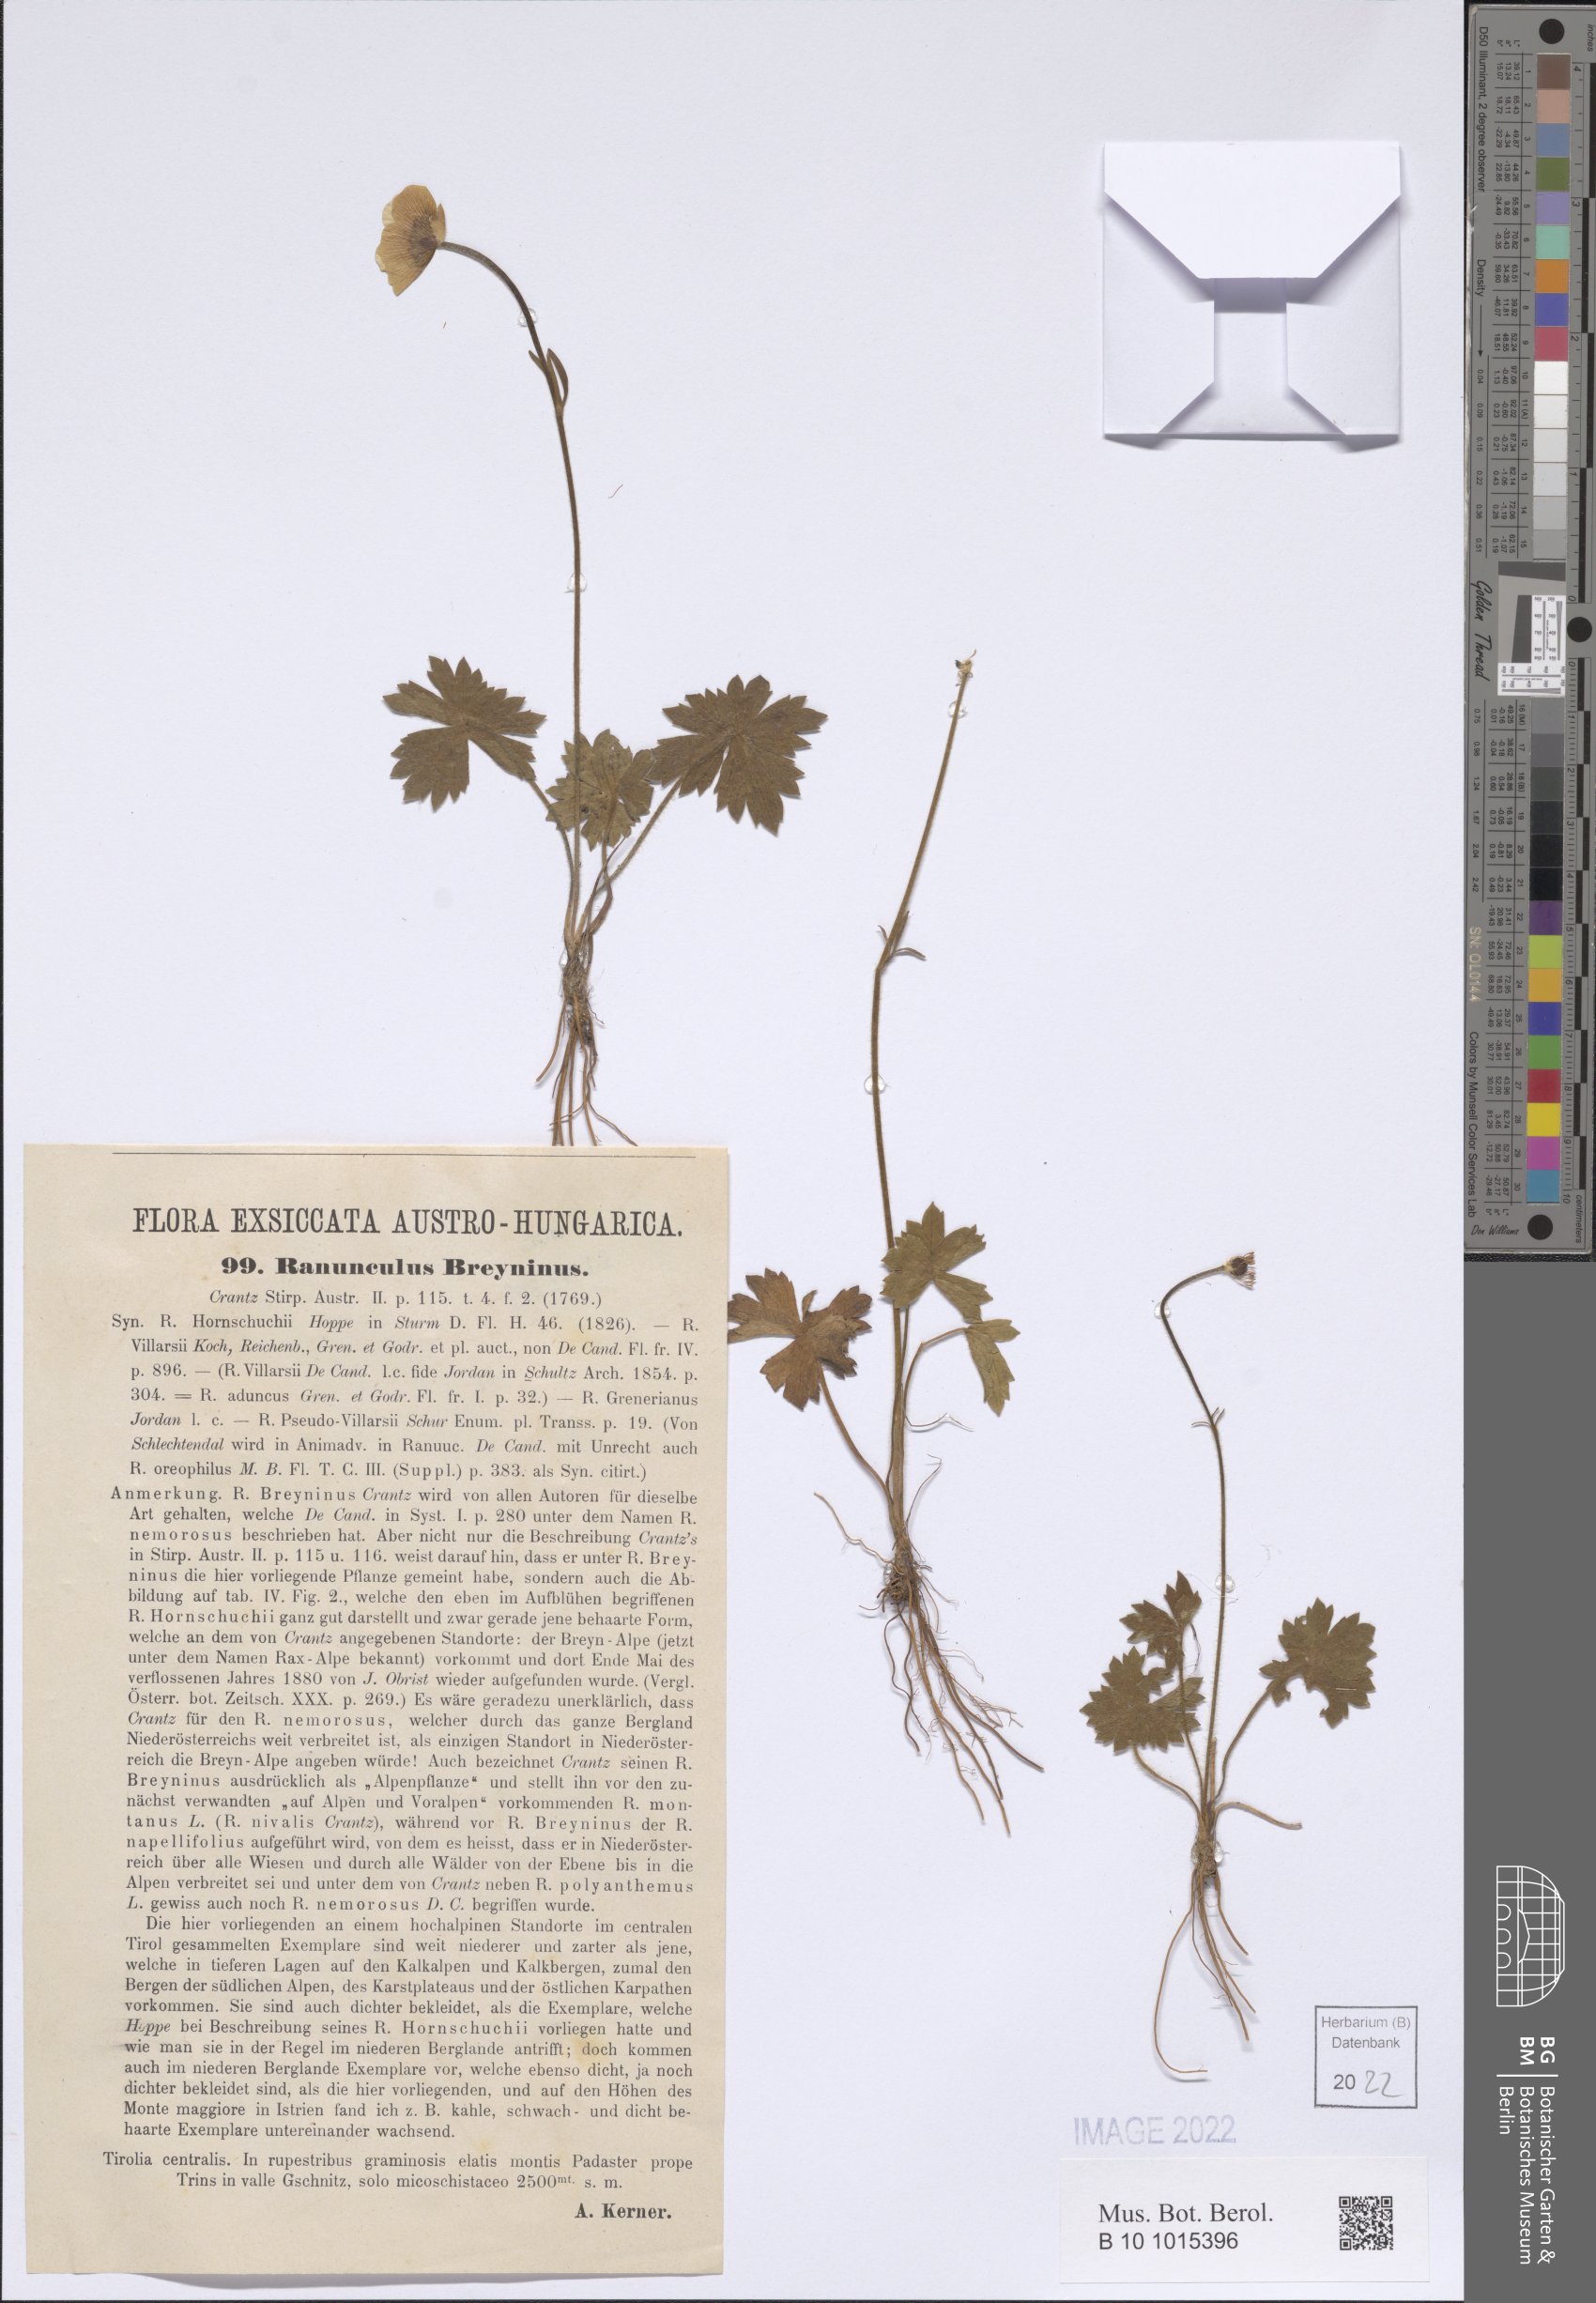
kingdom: Plantae
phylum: Tracheophyta
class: Magnoliopsida
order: Ranunculales
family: Ranunculaceae
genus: Ranunculus
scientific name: Ranunculus breyninus
